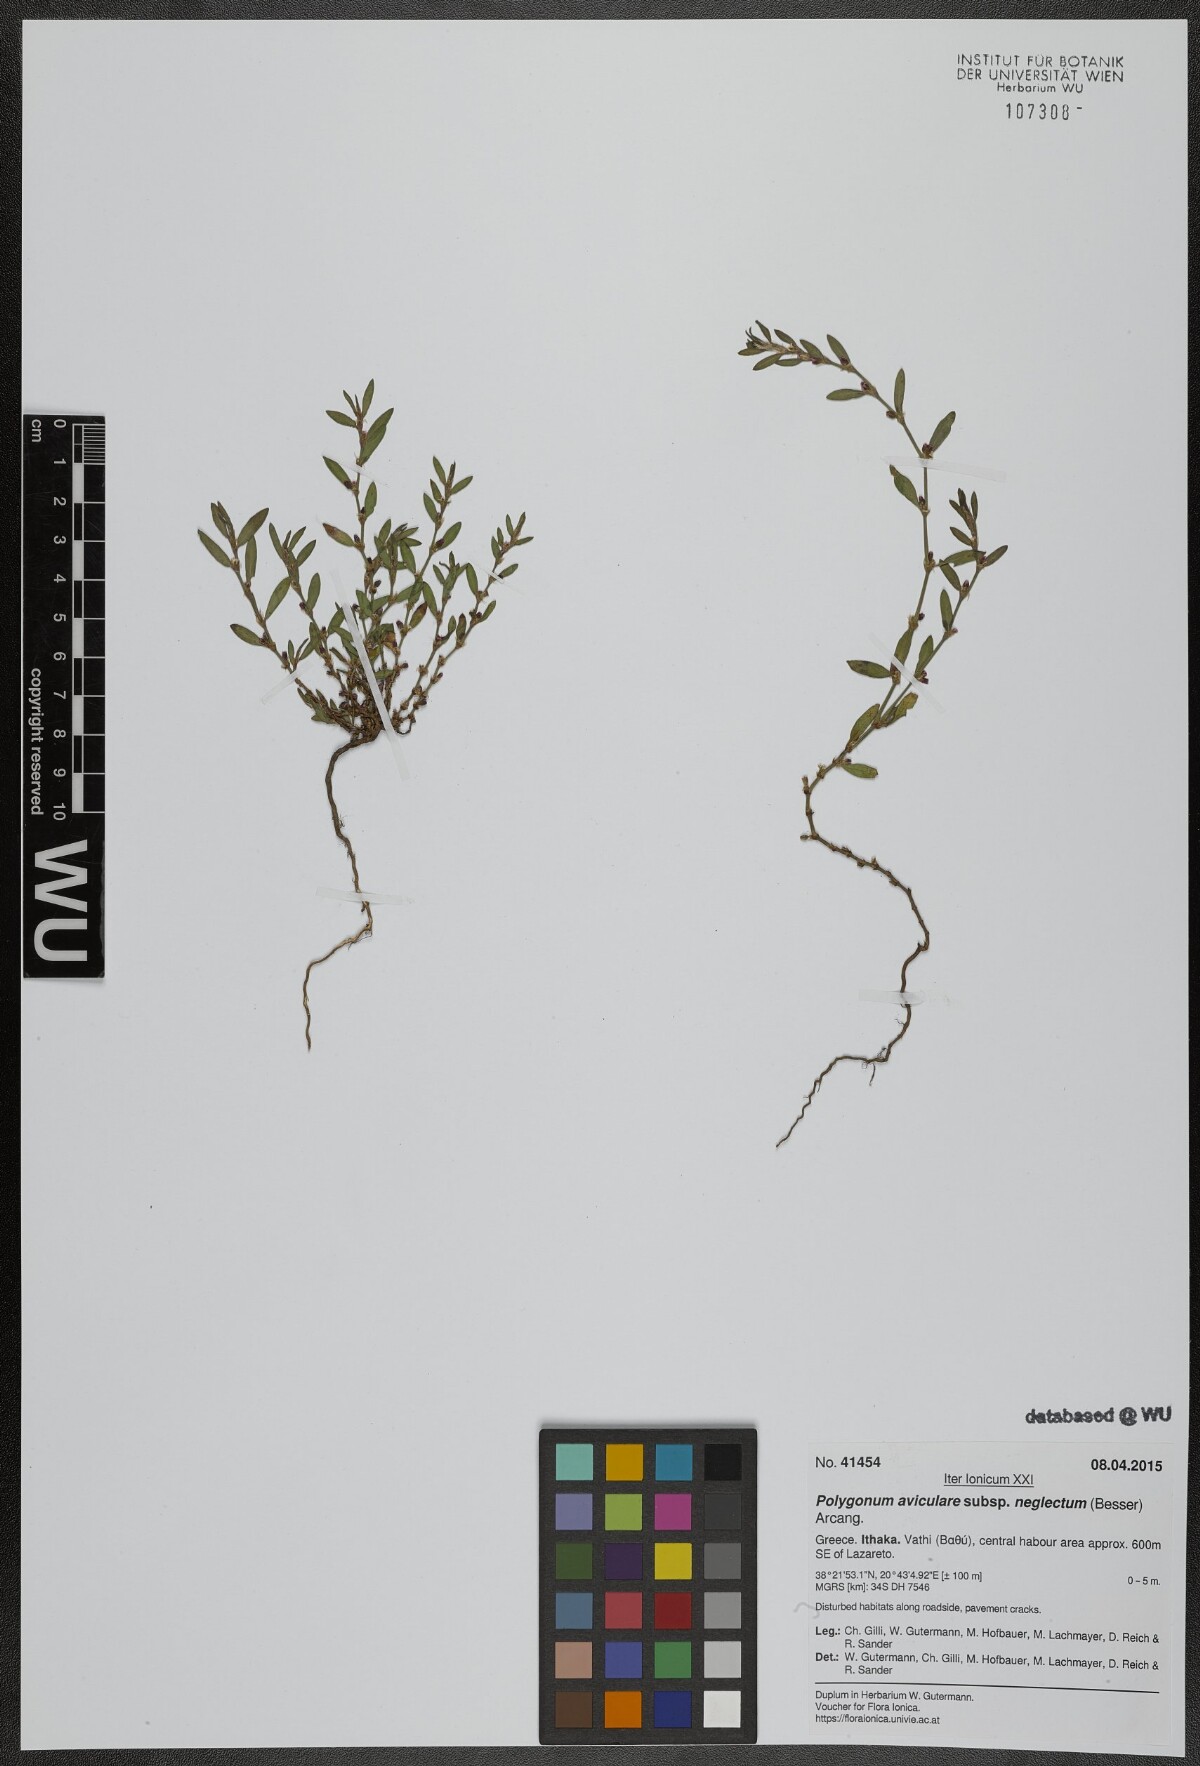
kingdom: Plantae
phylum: Tracheophyta
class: Magnoliopsida
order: Caryophyllales
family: Polygonaceae
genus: Polygonum
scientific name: Polygonum aviculare
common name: Prostrate knotweed
